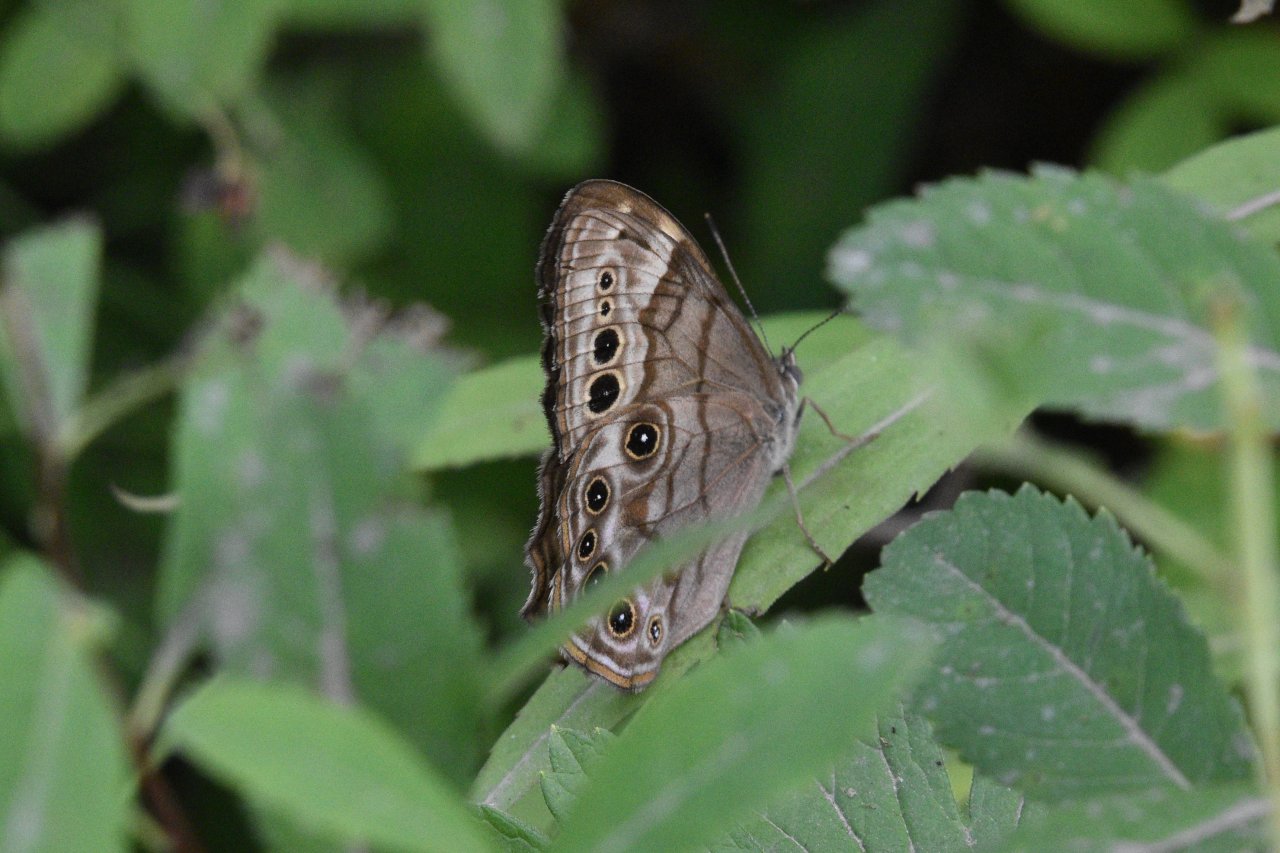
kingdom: Animalia
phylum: Arthropoda
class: Insecta
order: Lepidoptera
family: Nymphalidae
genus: Lethe
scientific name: Lethe anthedon
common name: Northern Pearly-Eye
